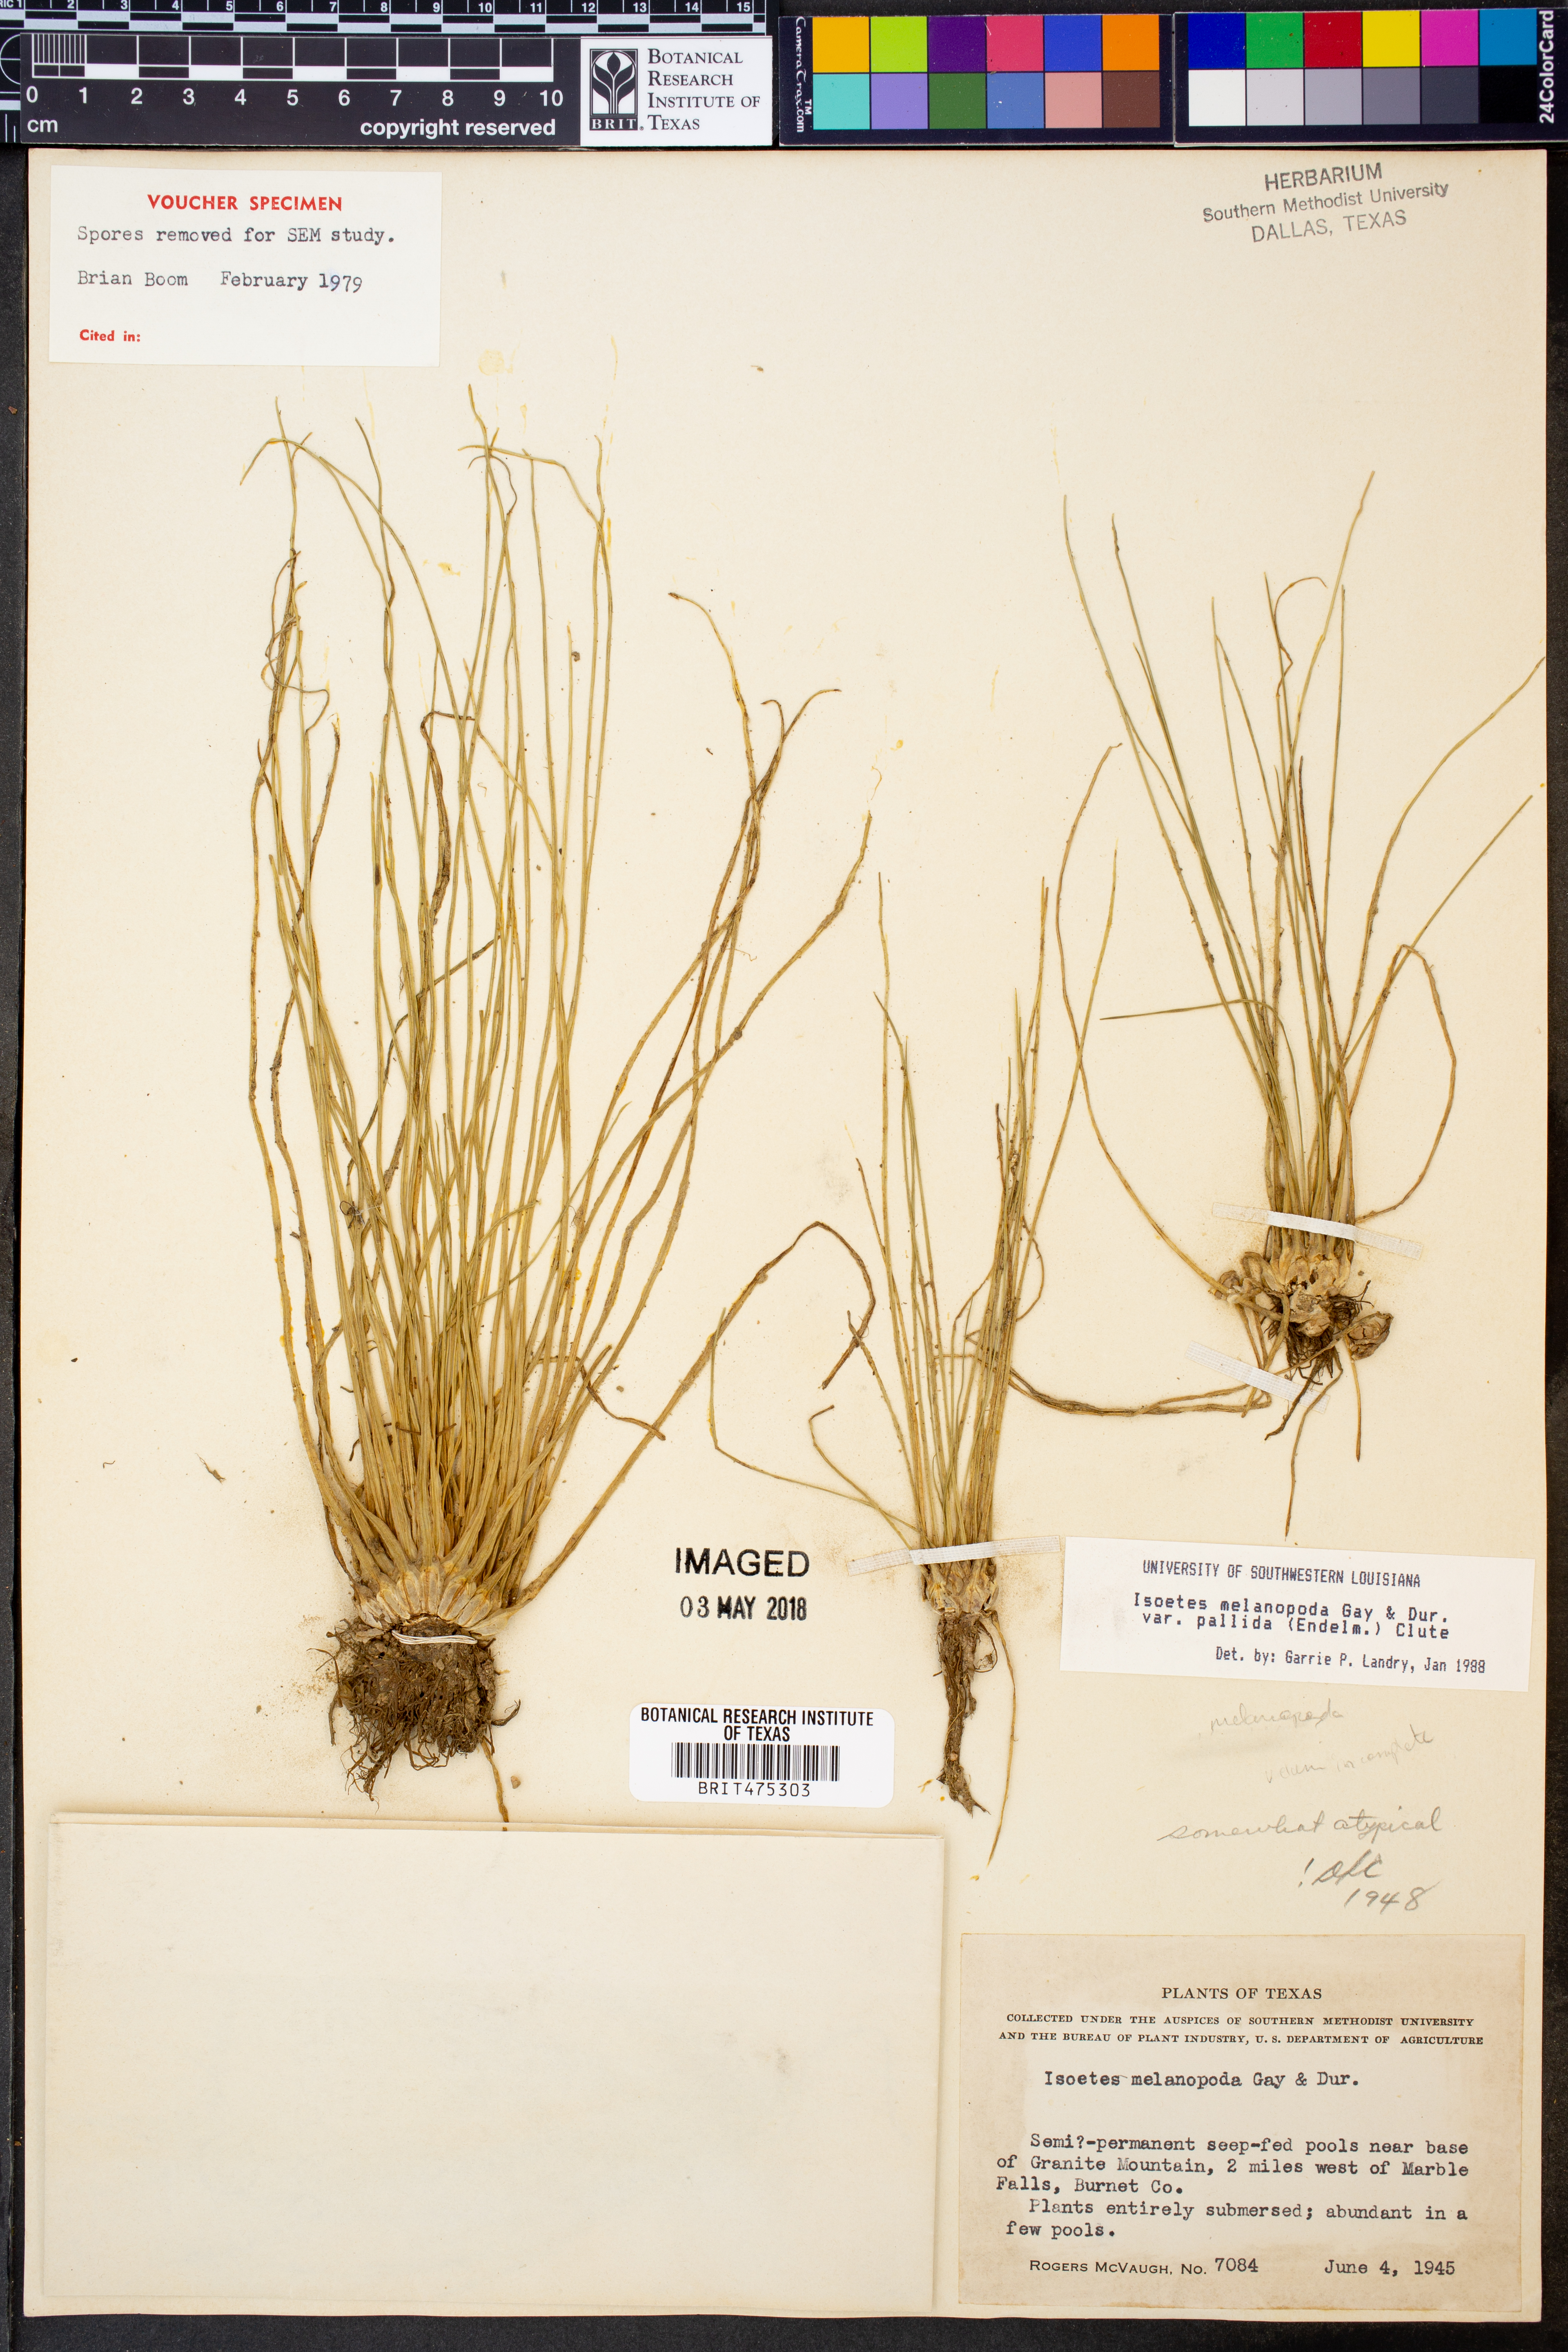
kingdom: Plantae
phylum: Tracheophyta
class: Lycopodiopsida
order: Isoetales
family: Isoetaceae
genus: Isoetes
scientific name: Isoetes melanopoda
